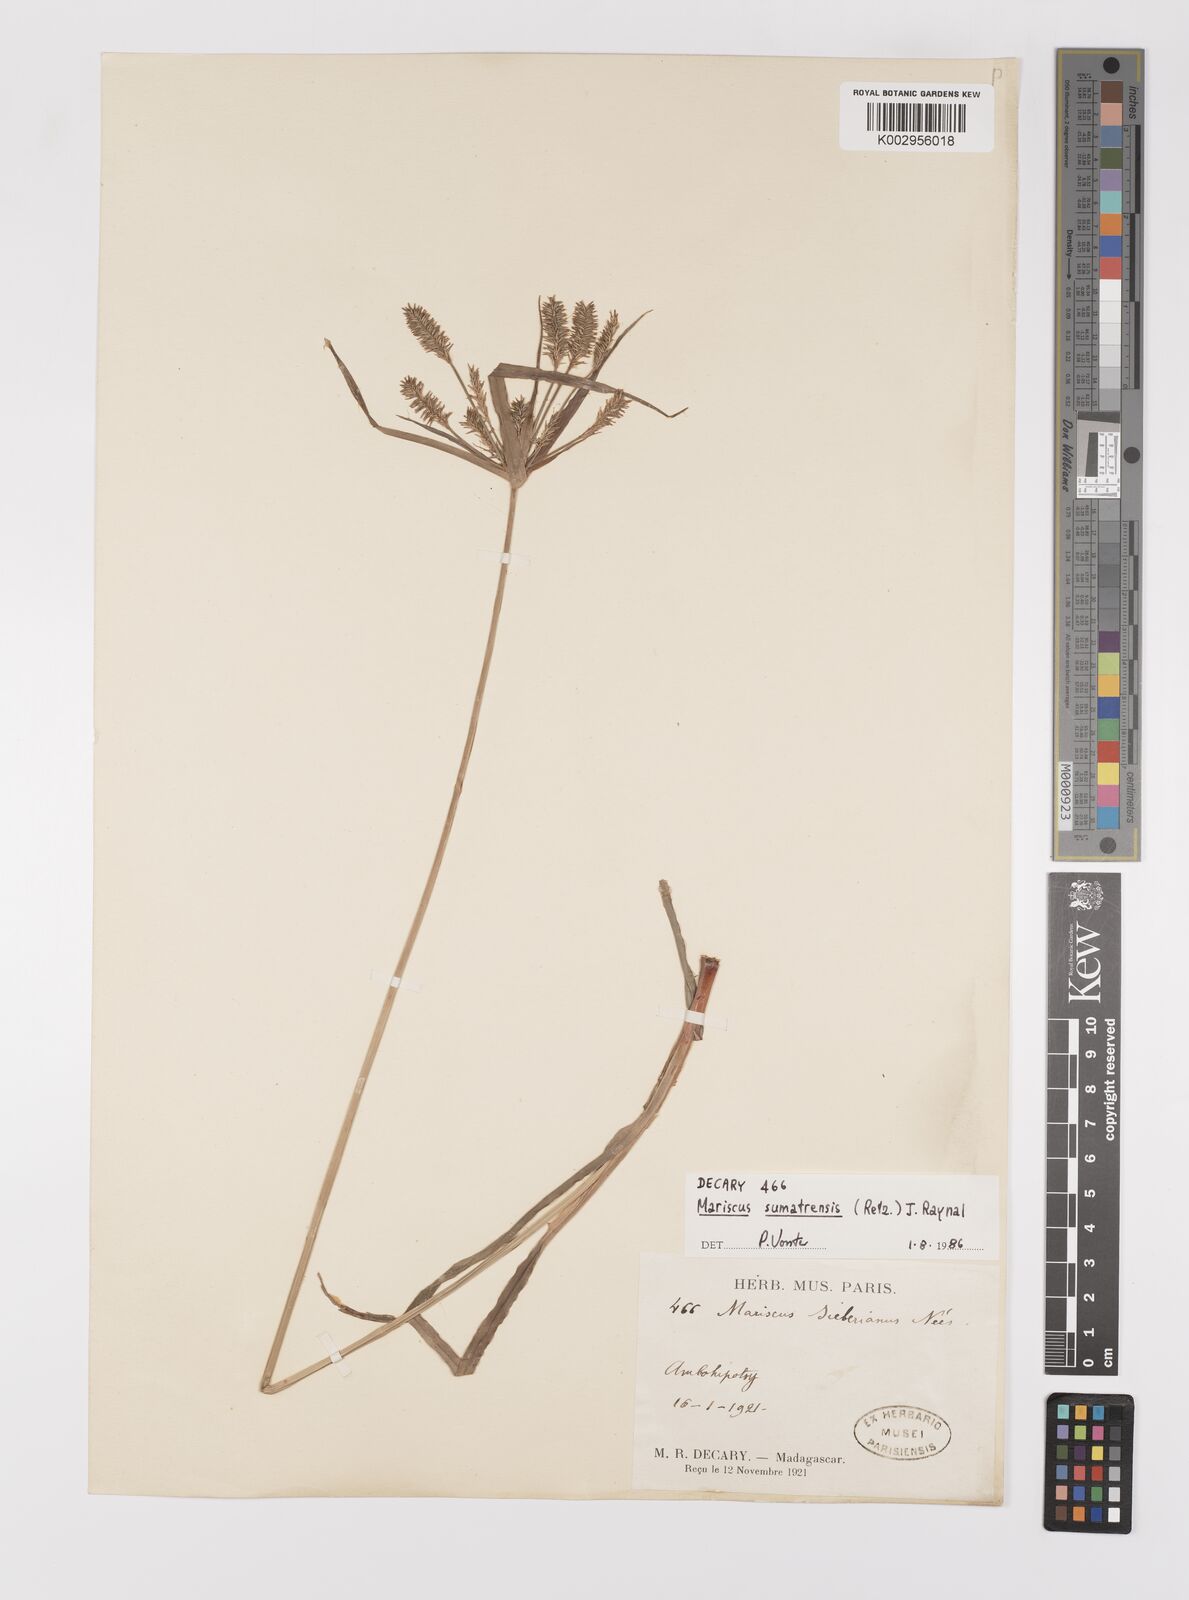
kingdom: Plantae
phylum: Tracheophyta
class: Liliopsida
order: Poales
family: Cyperaceae
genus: Cyperus
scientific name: Cyperus cyperoides
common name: Pacific island flat sedge
